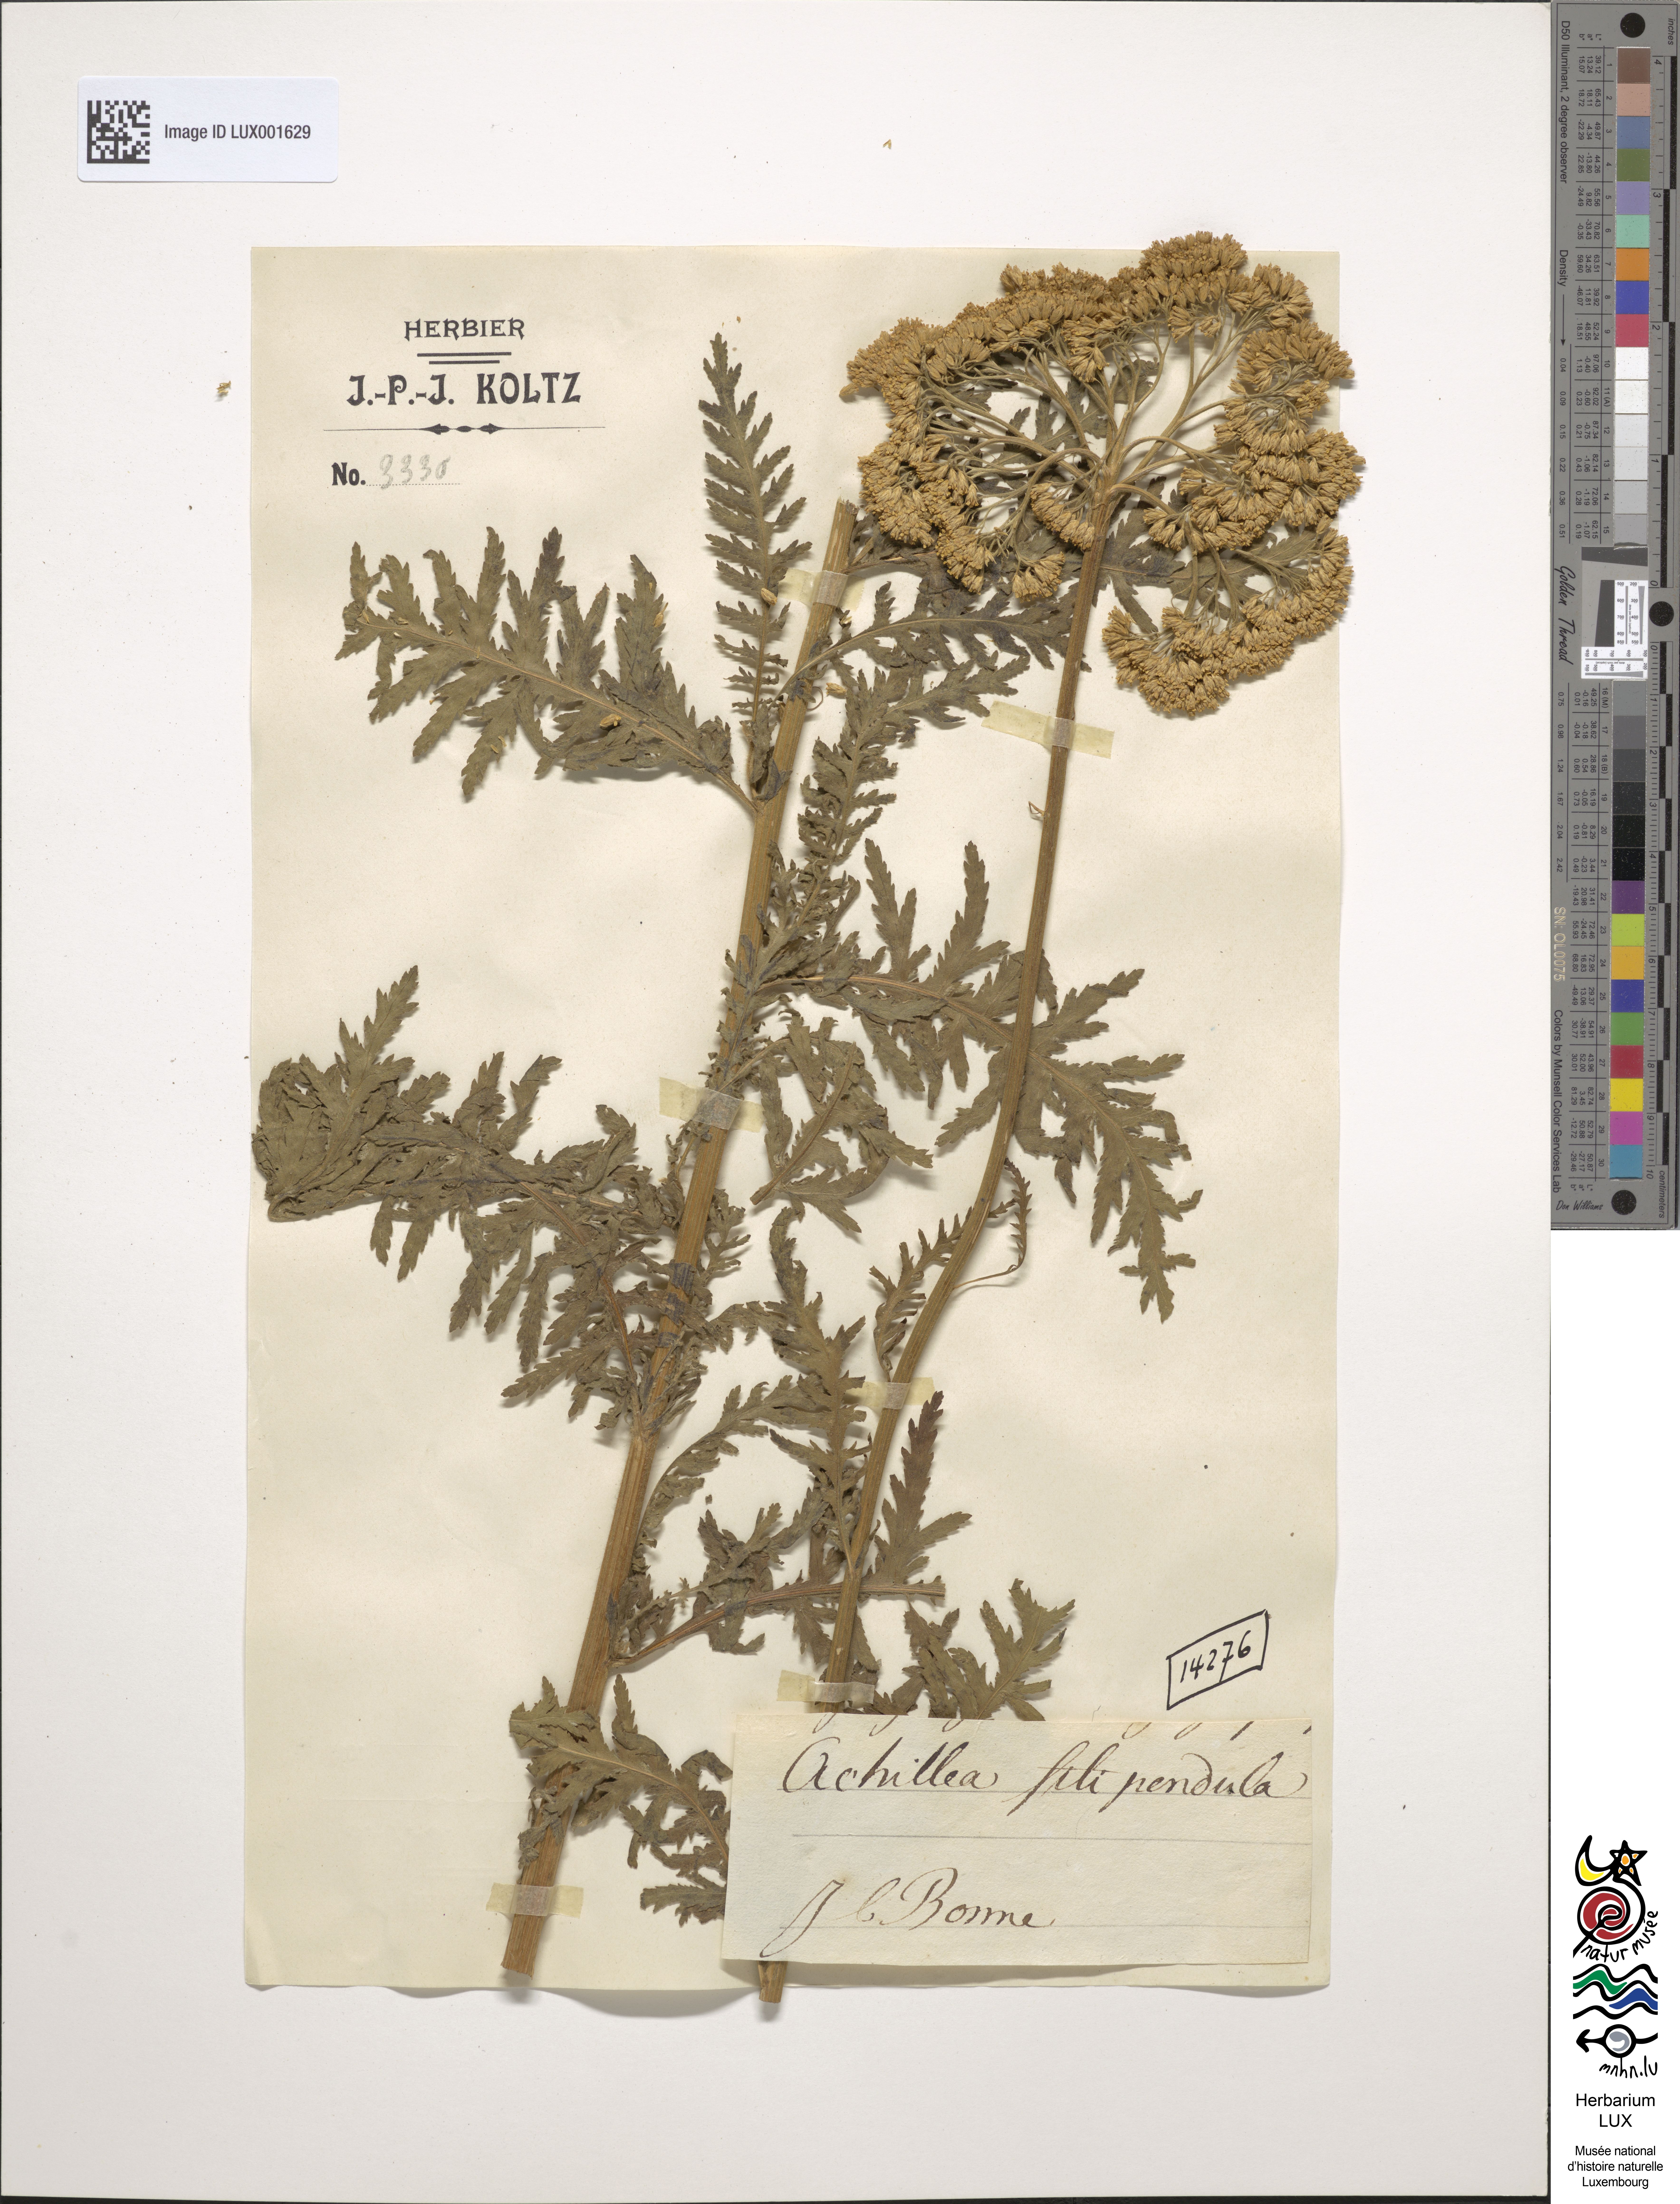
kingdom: Plantae
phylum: Tracheophyta
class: Magnoliopsida
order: Asterales
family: Asteraceae
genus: Achillea
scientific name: Achillea filipendulina
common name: Fernleaf yarrow
